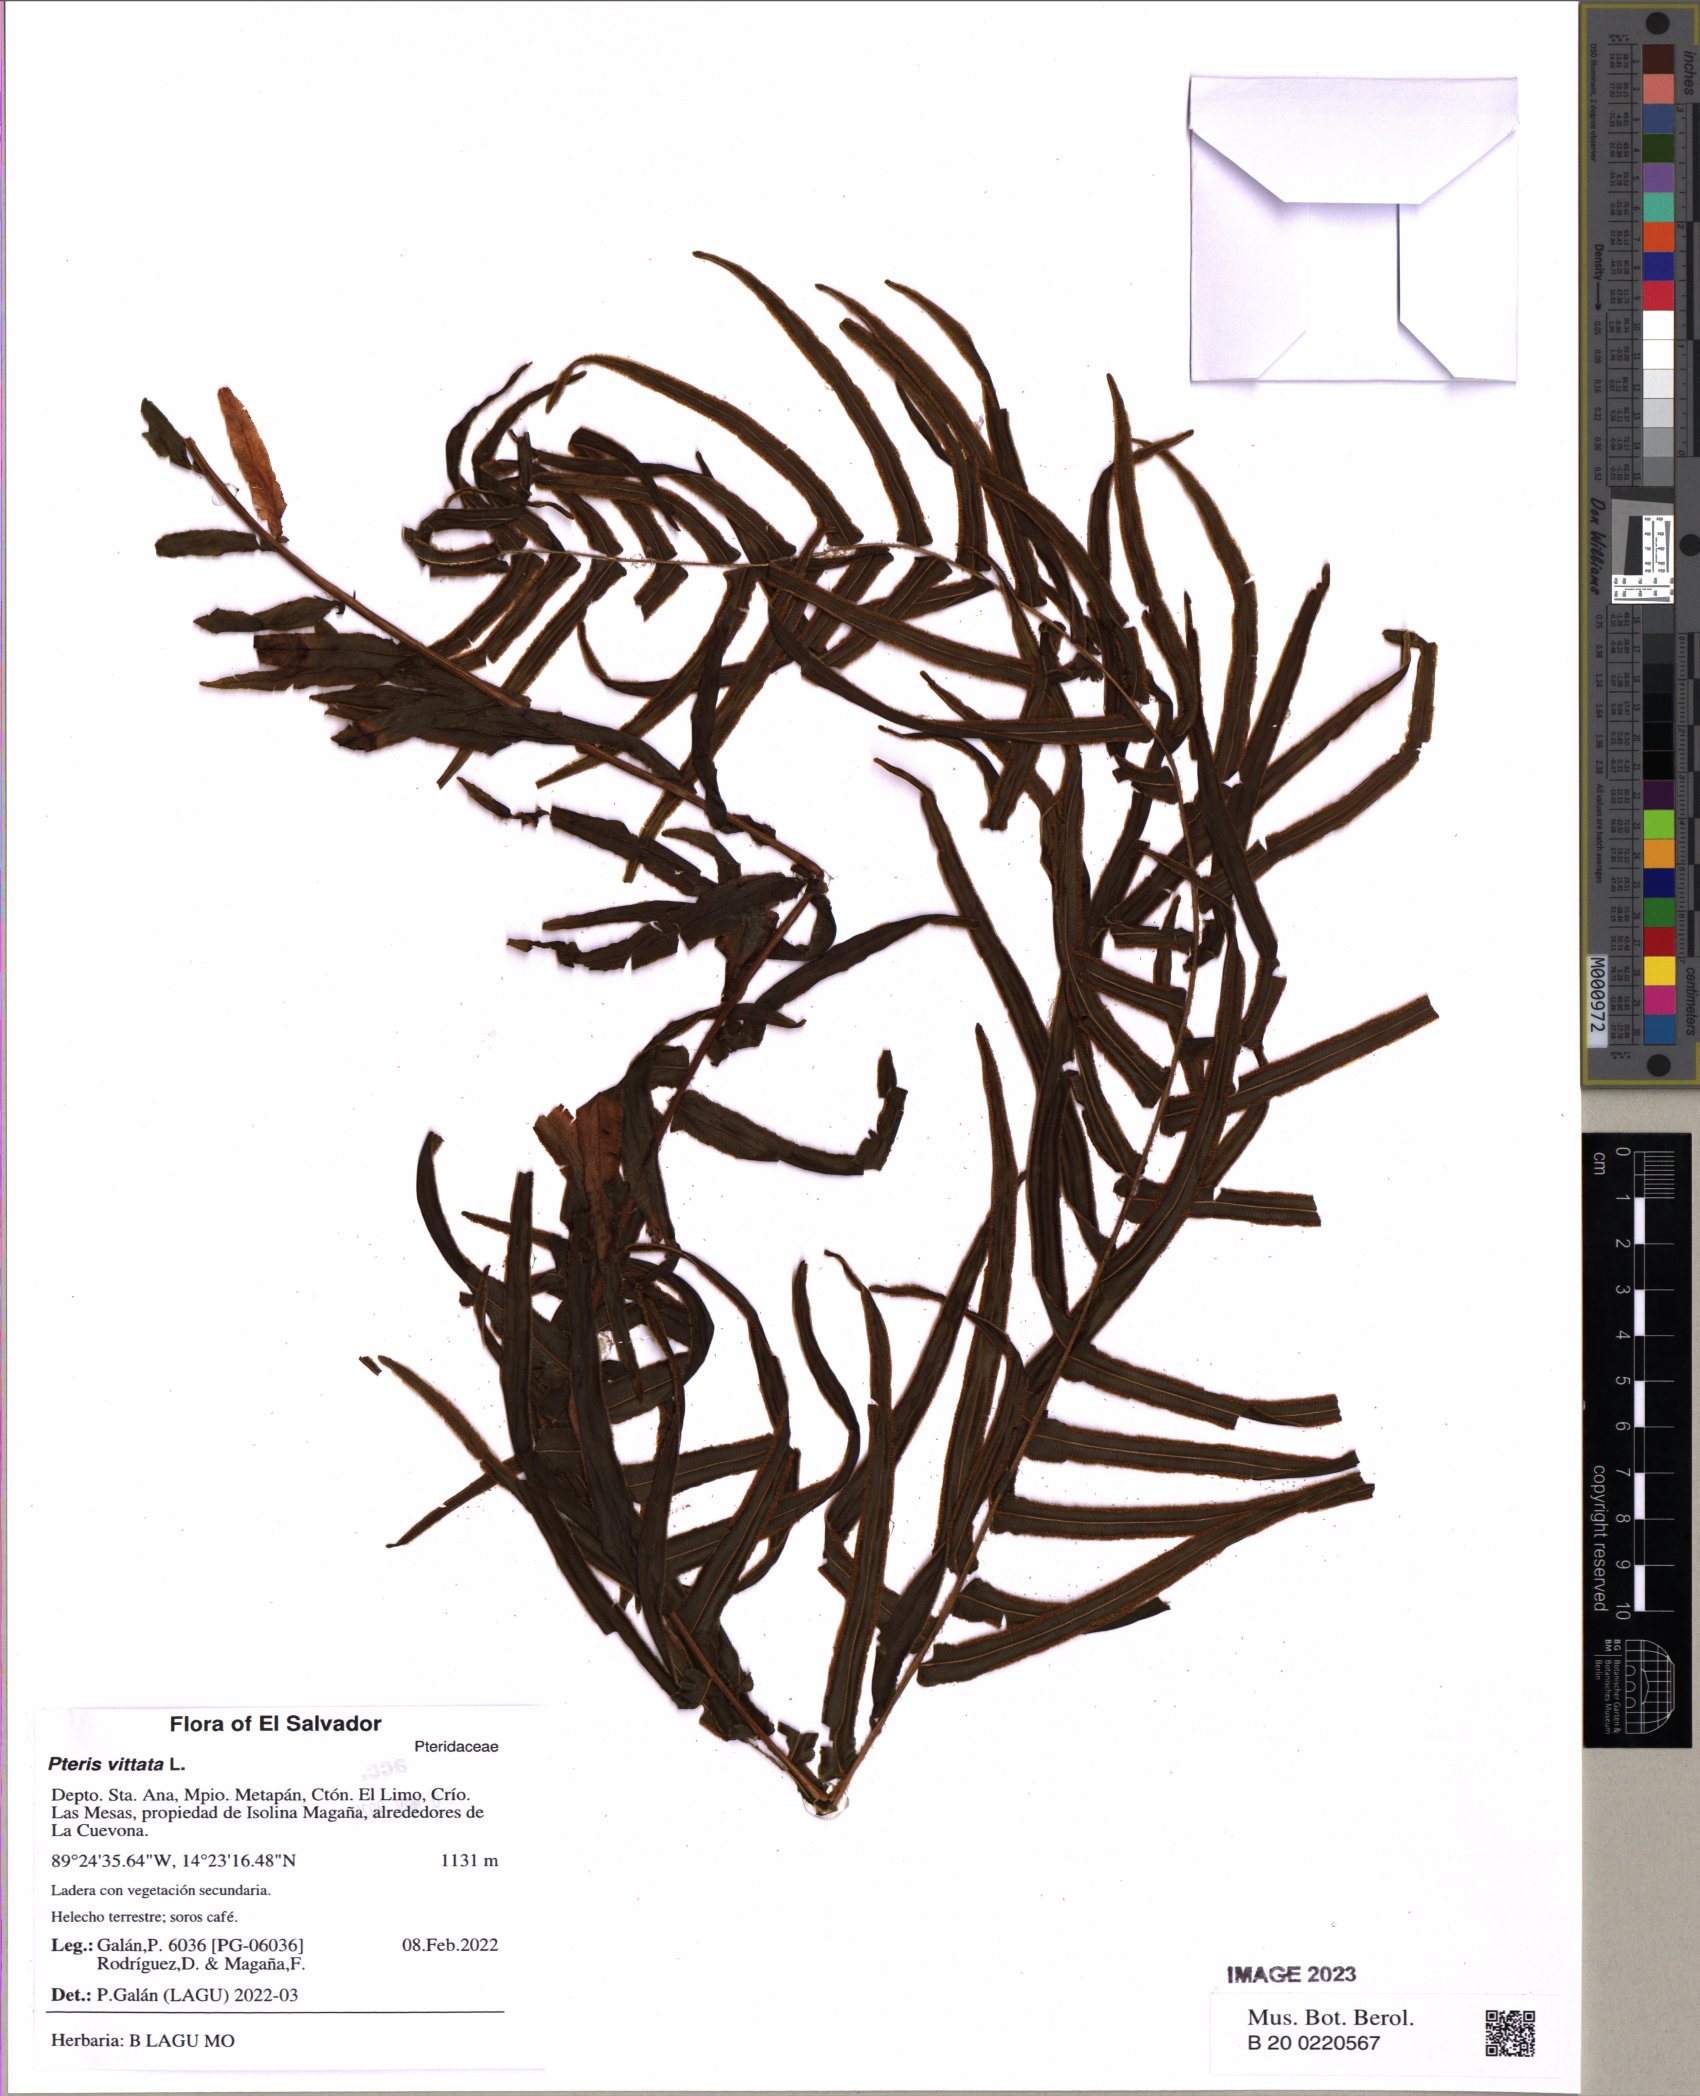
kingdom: Plantae
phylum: Tracheophyta
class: Polypodiopsida
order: Polypodiales
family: Pteridaceae
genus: Pteris
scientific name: Pteris vittata
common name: Ladder brake
